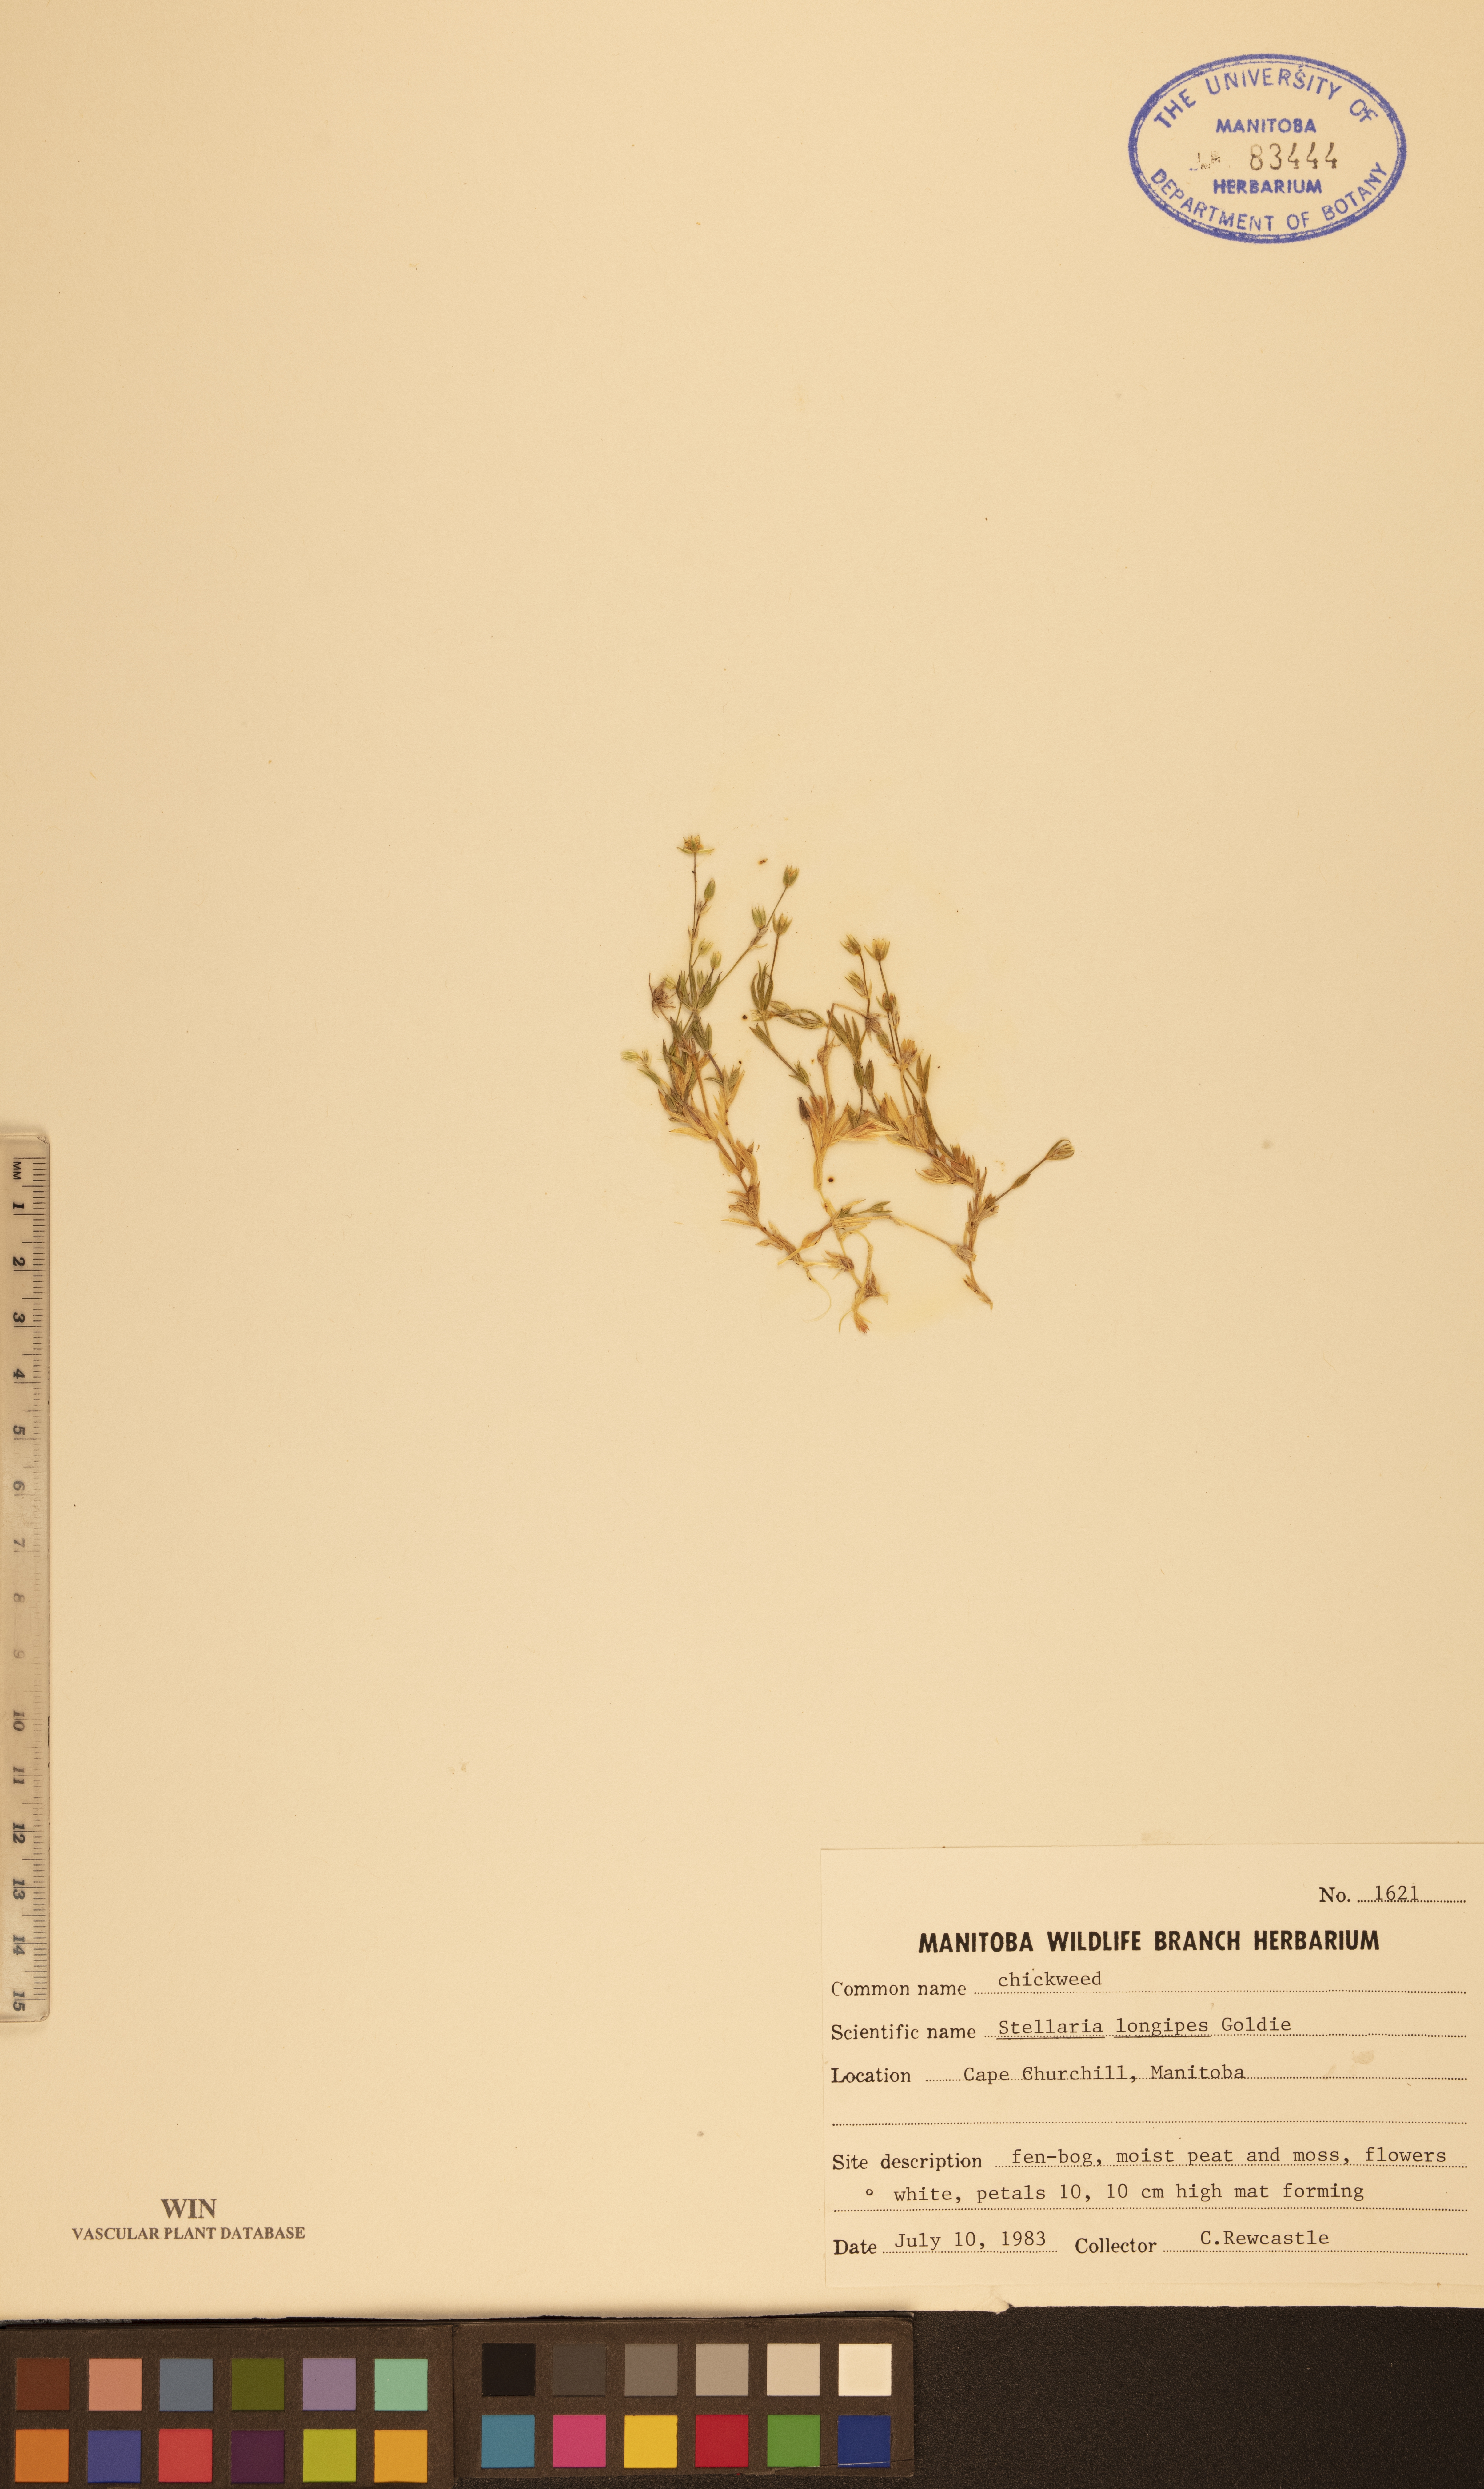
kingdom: Plantae
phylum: Tracheophyta
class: Magnoliopsida
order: Caryophyllales
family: Caryophyllaceae
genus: Stellaria
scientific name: Stellaria longipes
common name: Goldie's starwort
